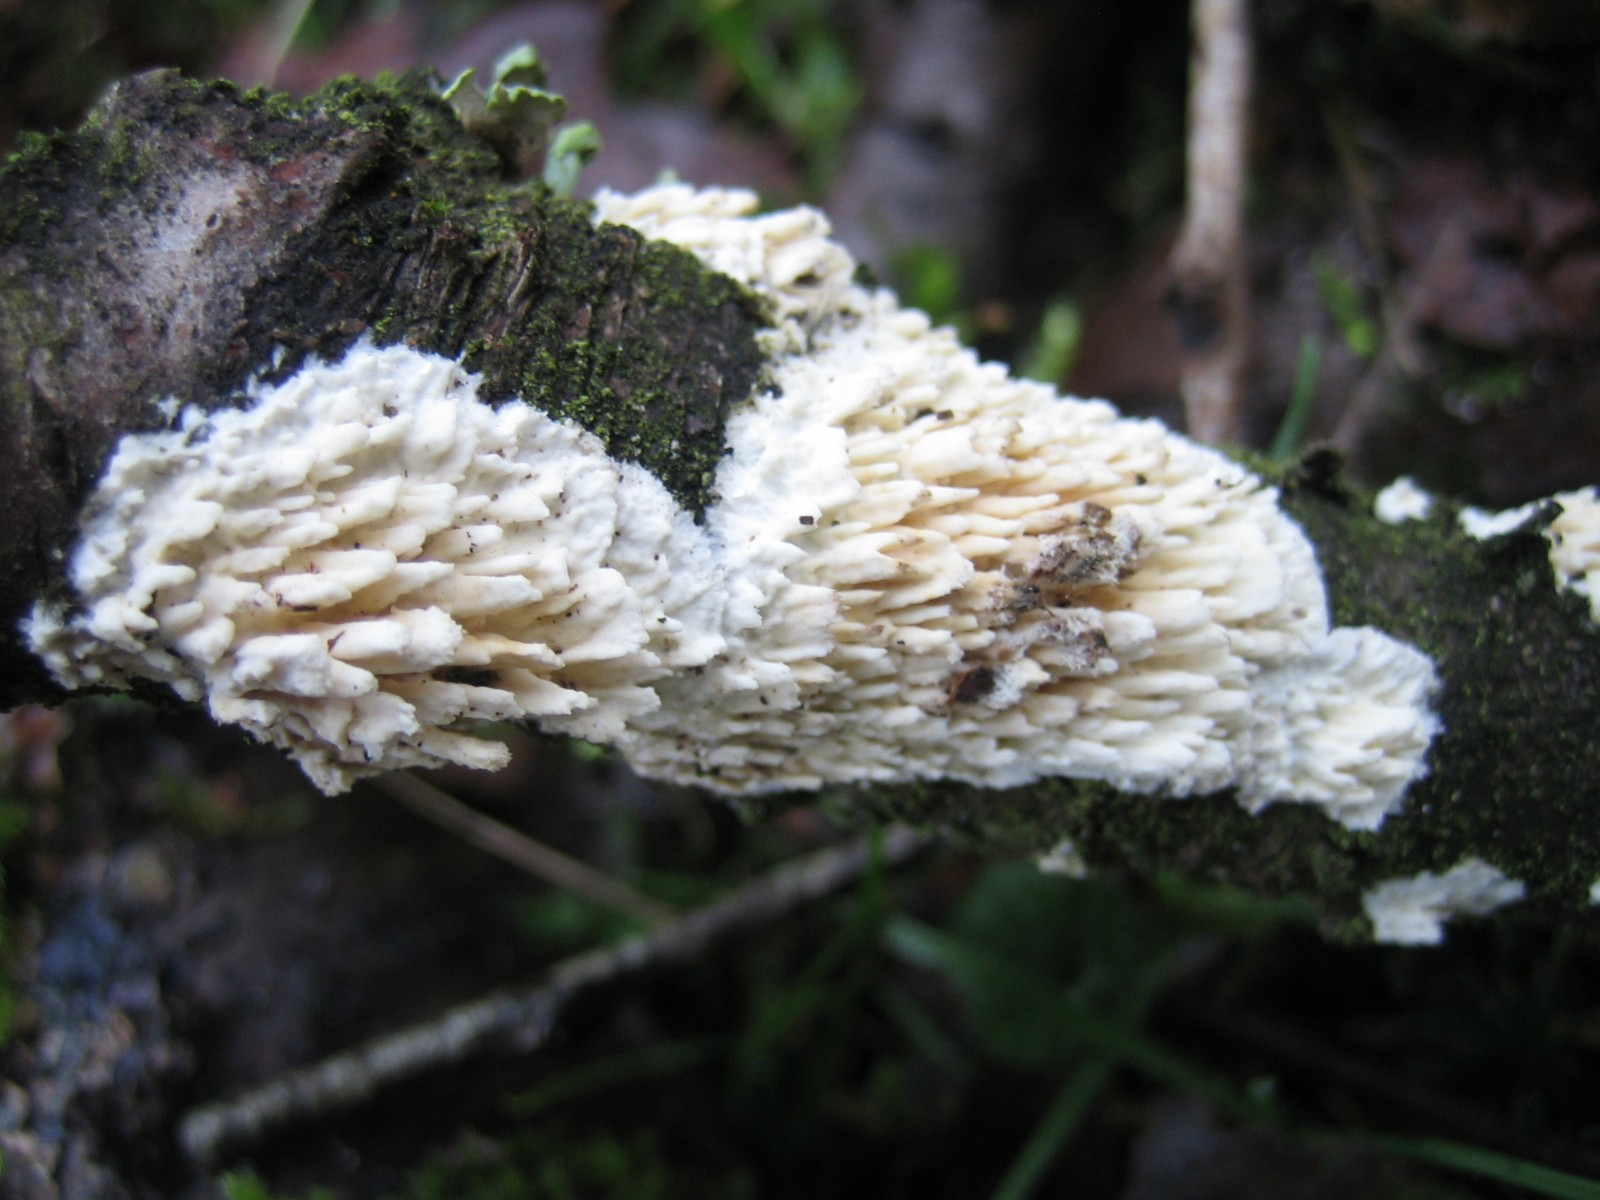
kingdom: Fungi
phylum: Basidiomycota
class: Agaricomycetes
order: Hymenochaetales
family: Schizoporaceae
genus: Xylodon
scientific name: Xylodon radula
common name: grovtandet kalkskind
